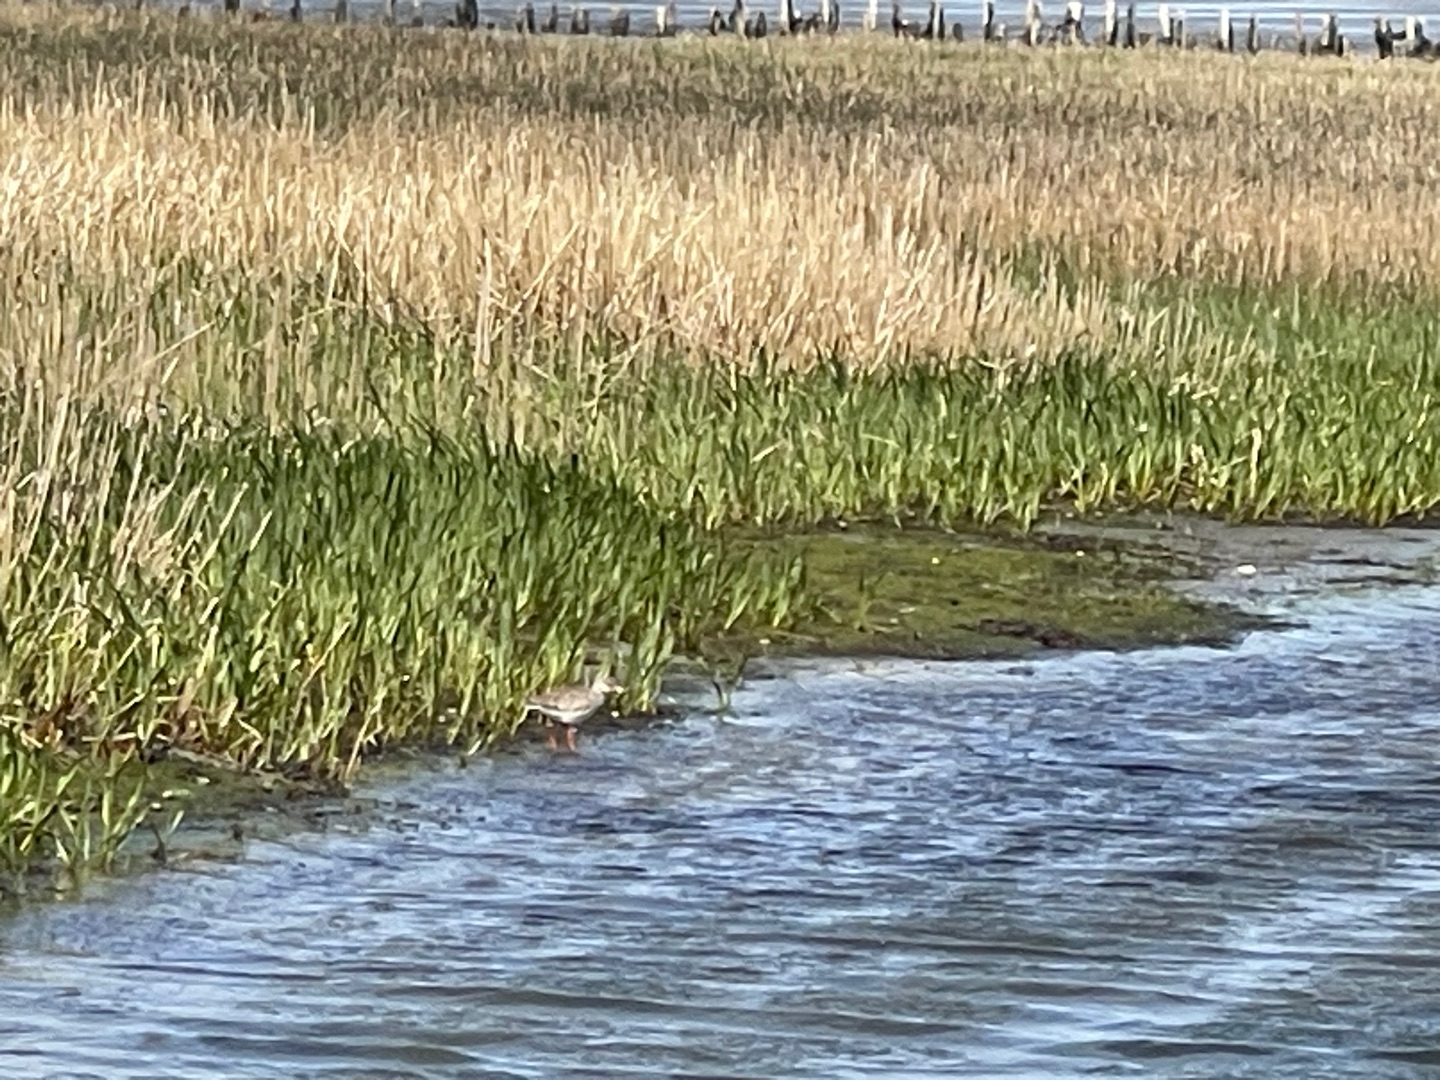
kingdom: Animalia
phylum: Chordata
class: Aves
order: Charadriiformes
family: Scolopacidae
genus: Tringa
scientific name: Tringa totanus
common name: Rødben
